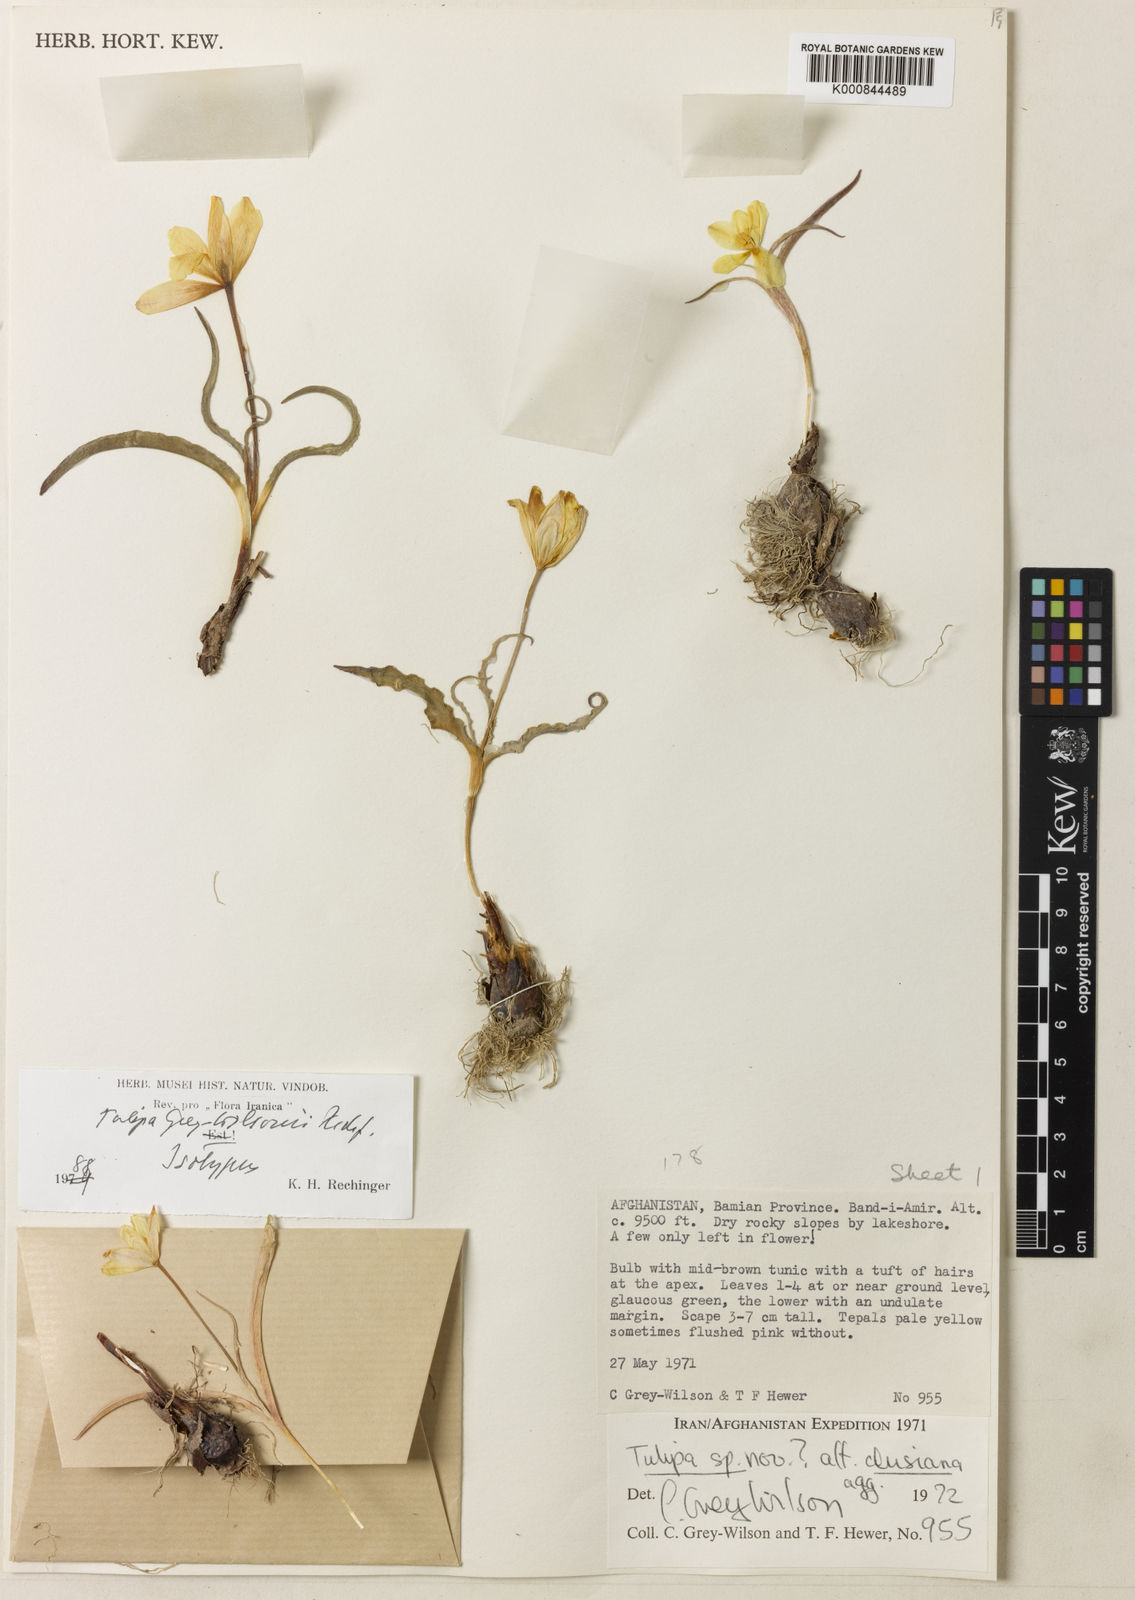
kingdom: Plantae
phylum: Tracheophyta
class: Liliopsida
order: Liliales
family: Liliaceae
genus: Tulipa
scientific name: Tulipa greigii
